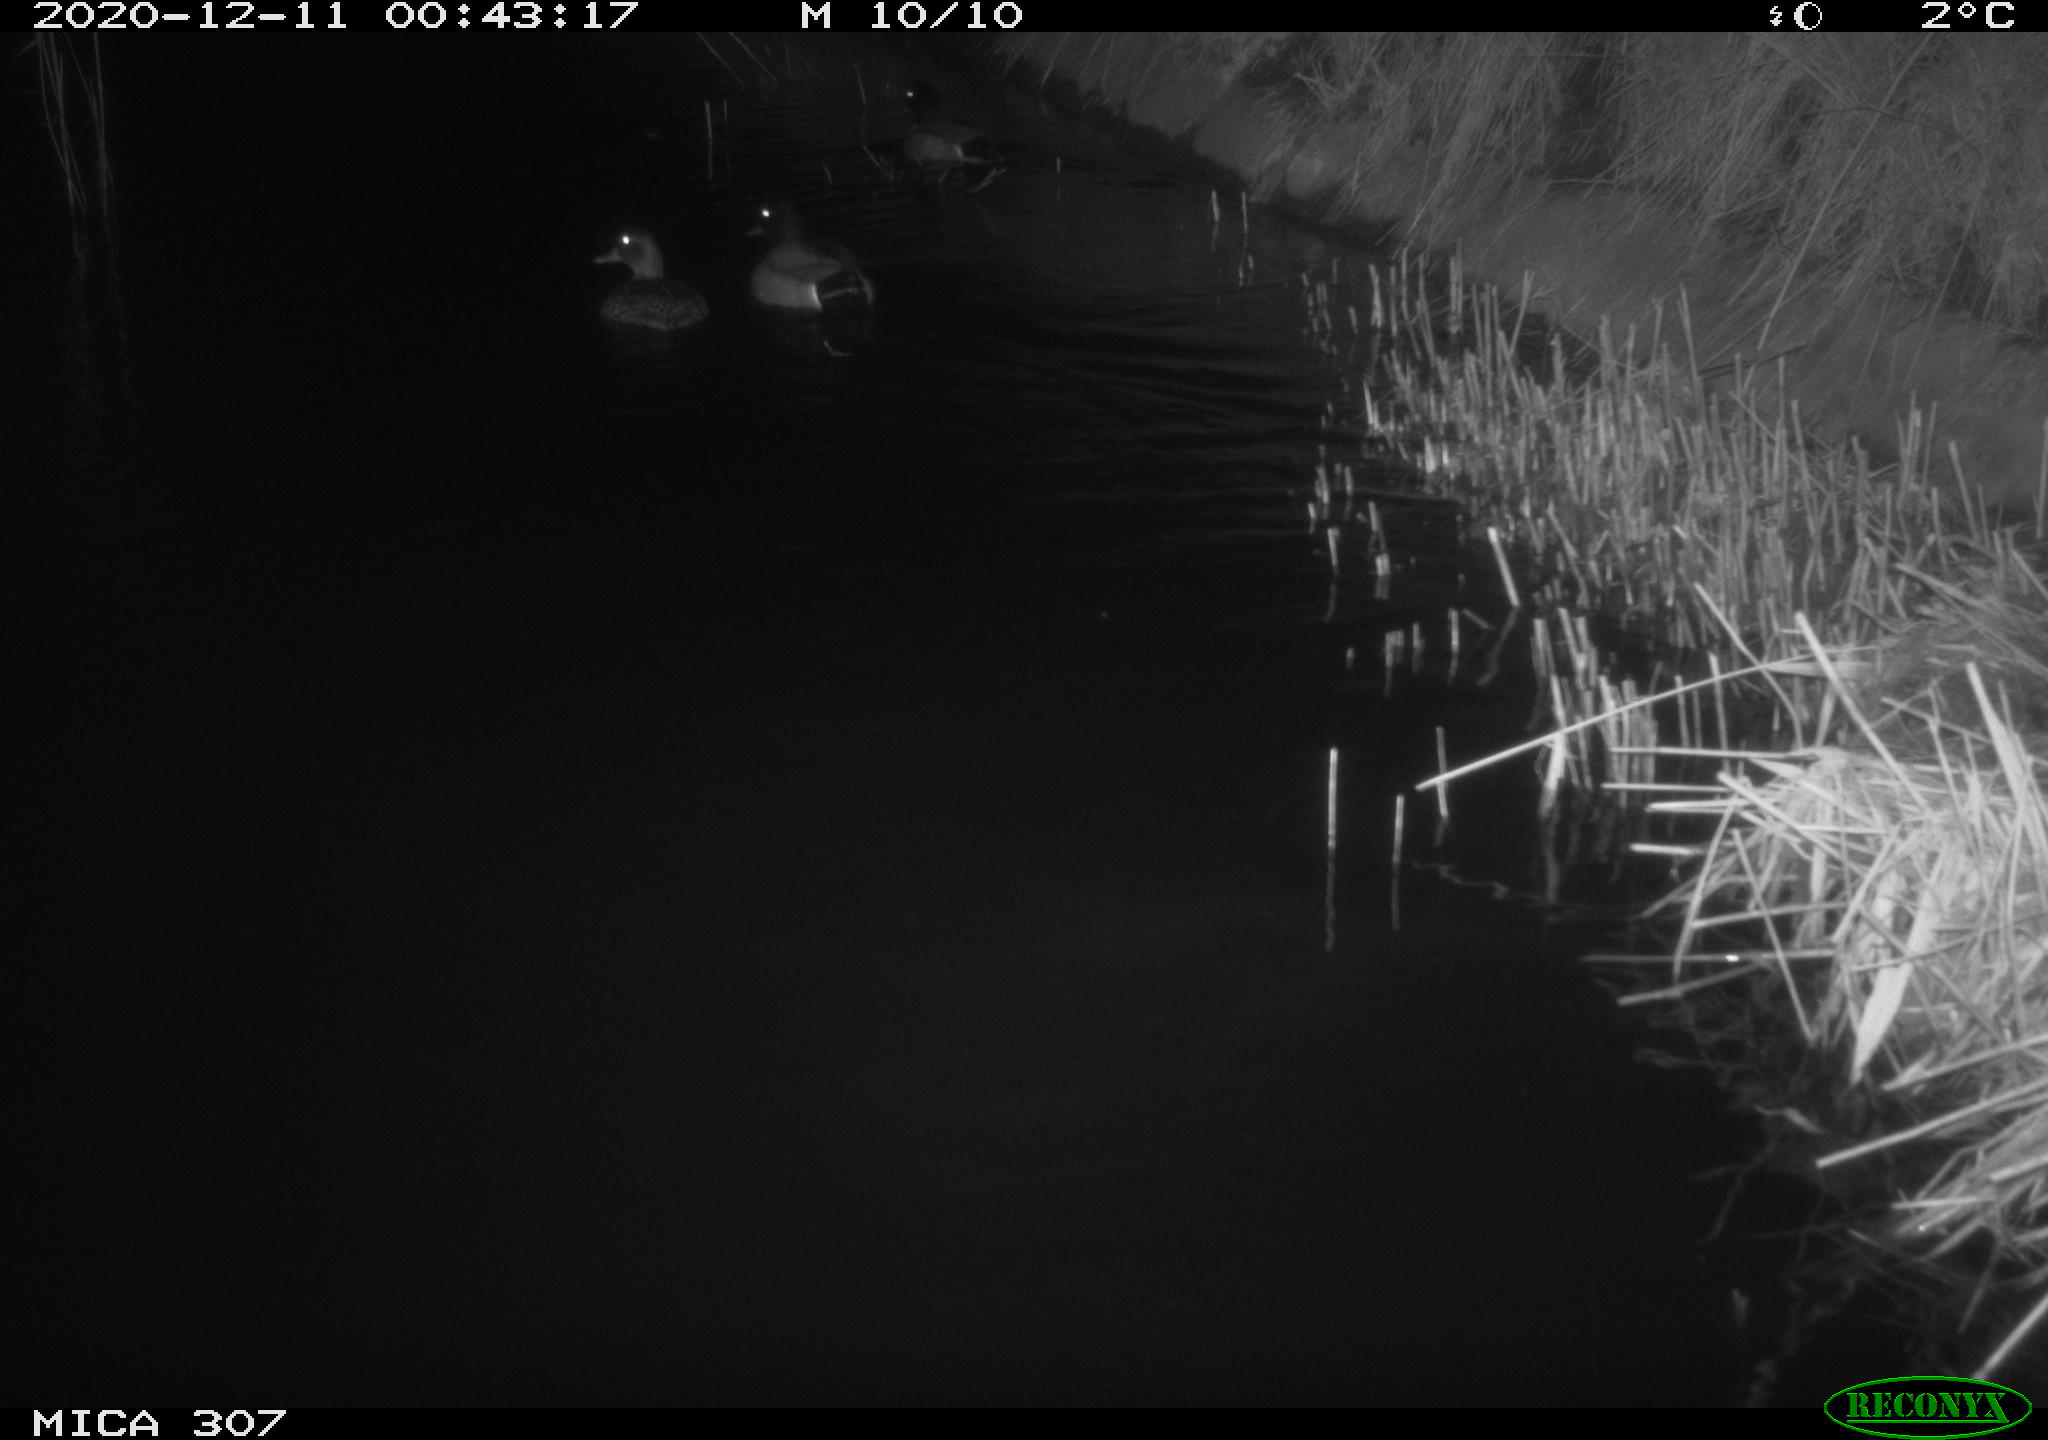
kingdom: Animalia
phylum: Chordata
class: Aves
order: Anseriformes
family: Anatidae
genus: Anas
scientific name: Anas platyrhynchos
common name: Mallard
